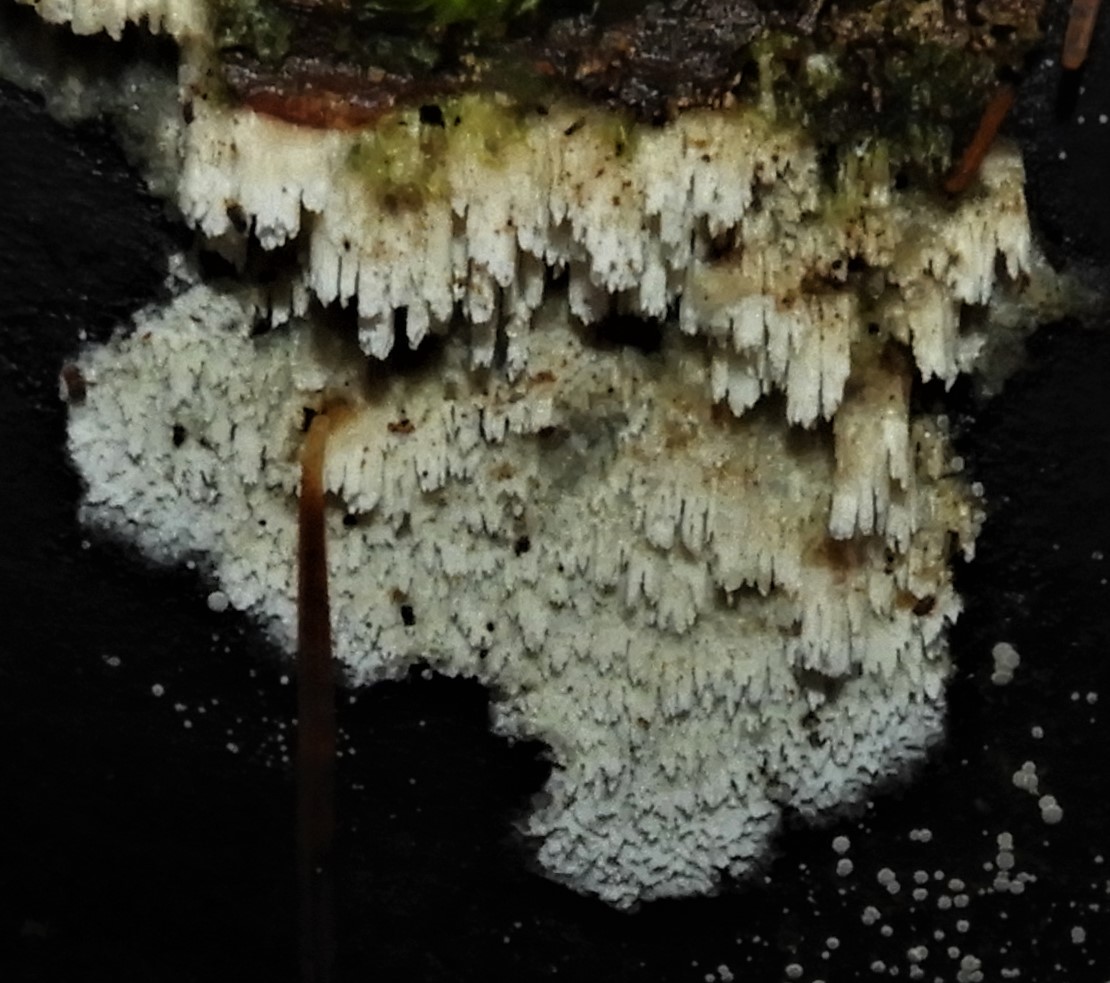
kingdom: Fungi
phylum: Basidiomycota
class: Agaricomycetes
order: Hymenochaetales
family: Schizoporaceae
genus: Schizopora
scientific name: Schizopora paradoxa
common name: hvid tandsvamp
